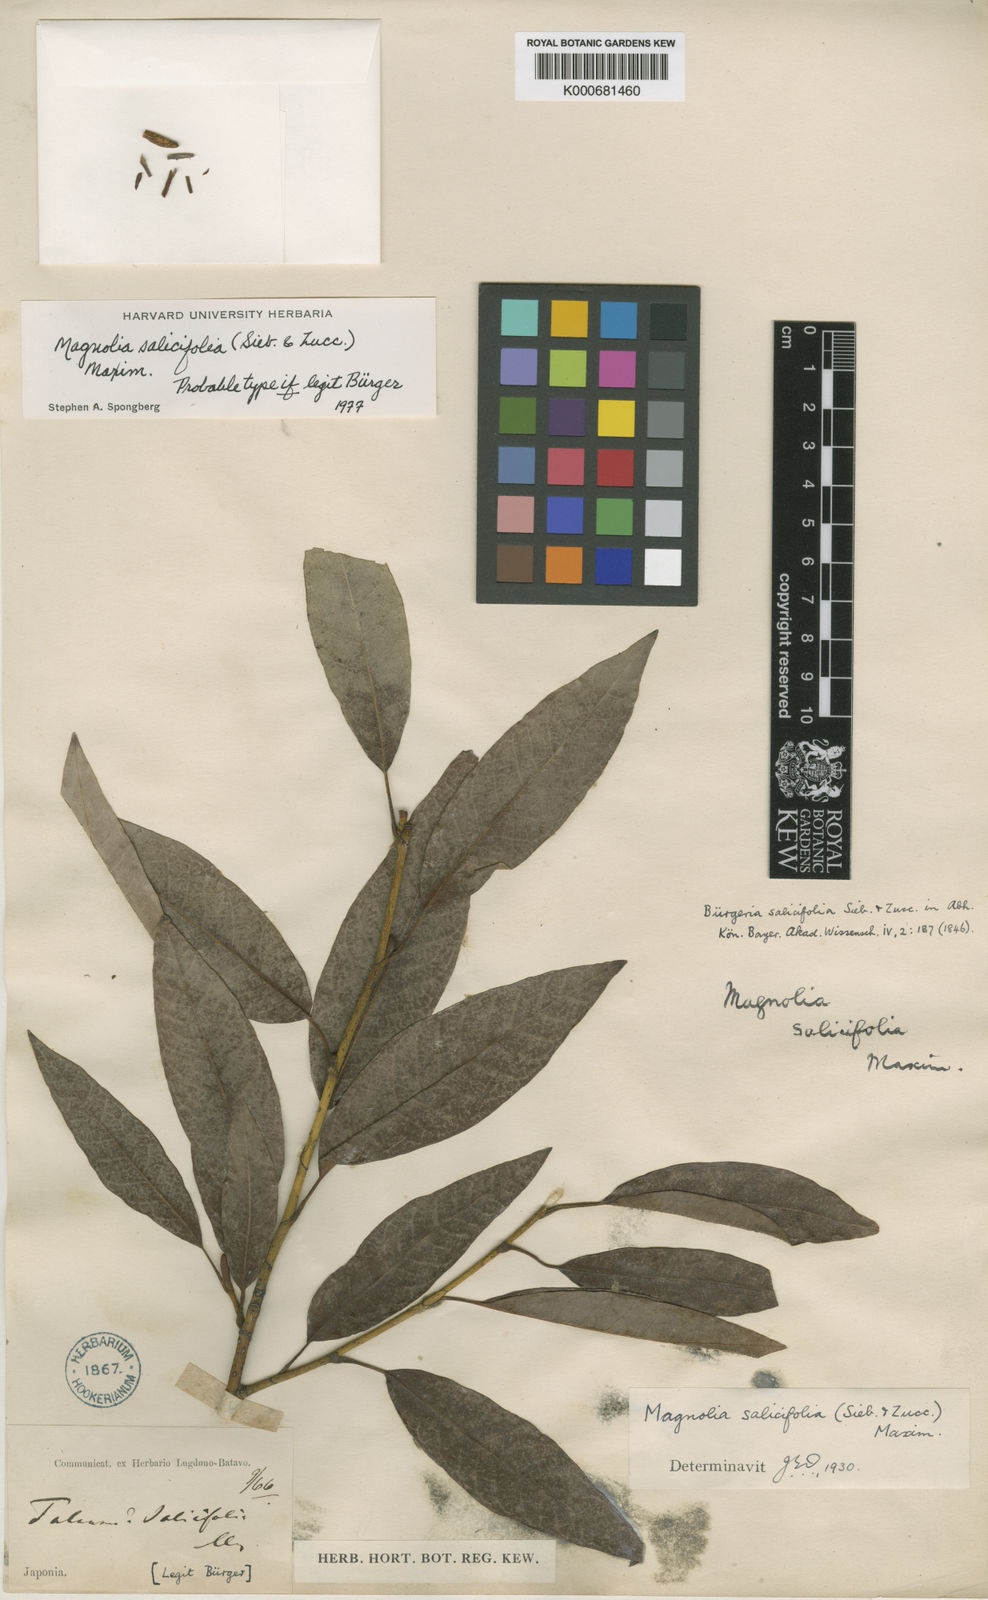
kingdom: Plantae
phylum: Tracheophyta
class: Magnoliopsida
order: Magnoliales
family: Magnoliaceae
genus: Magnolia
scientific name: Magnolia salicifolia
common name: Anise magnolia
